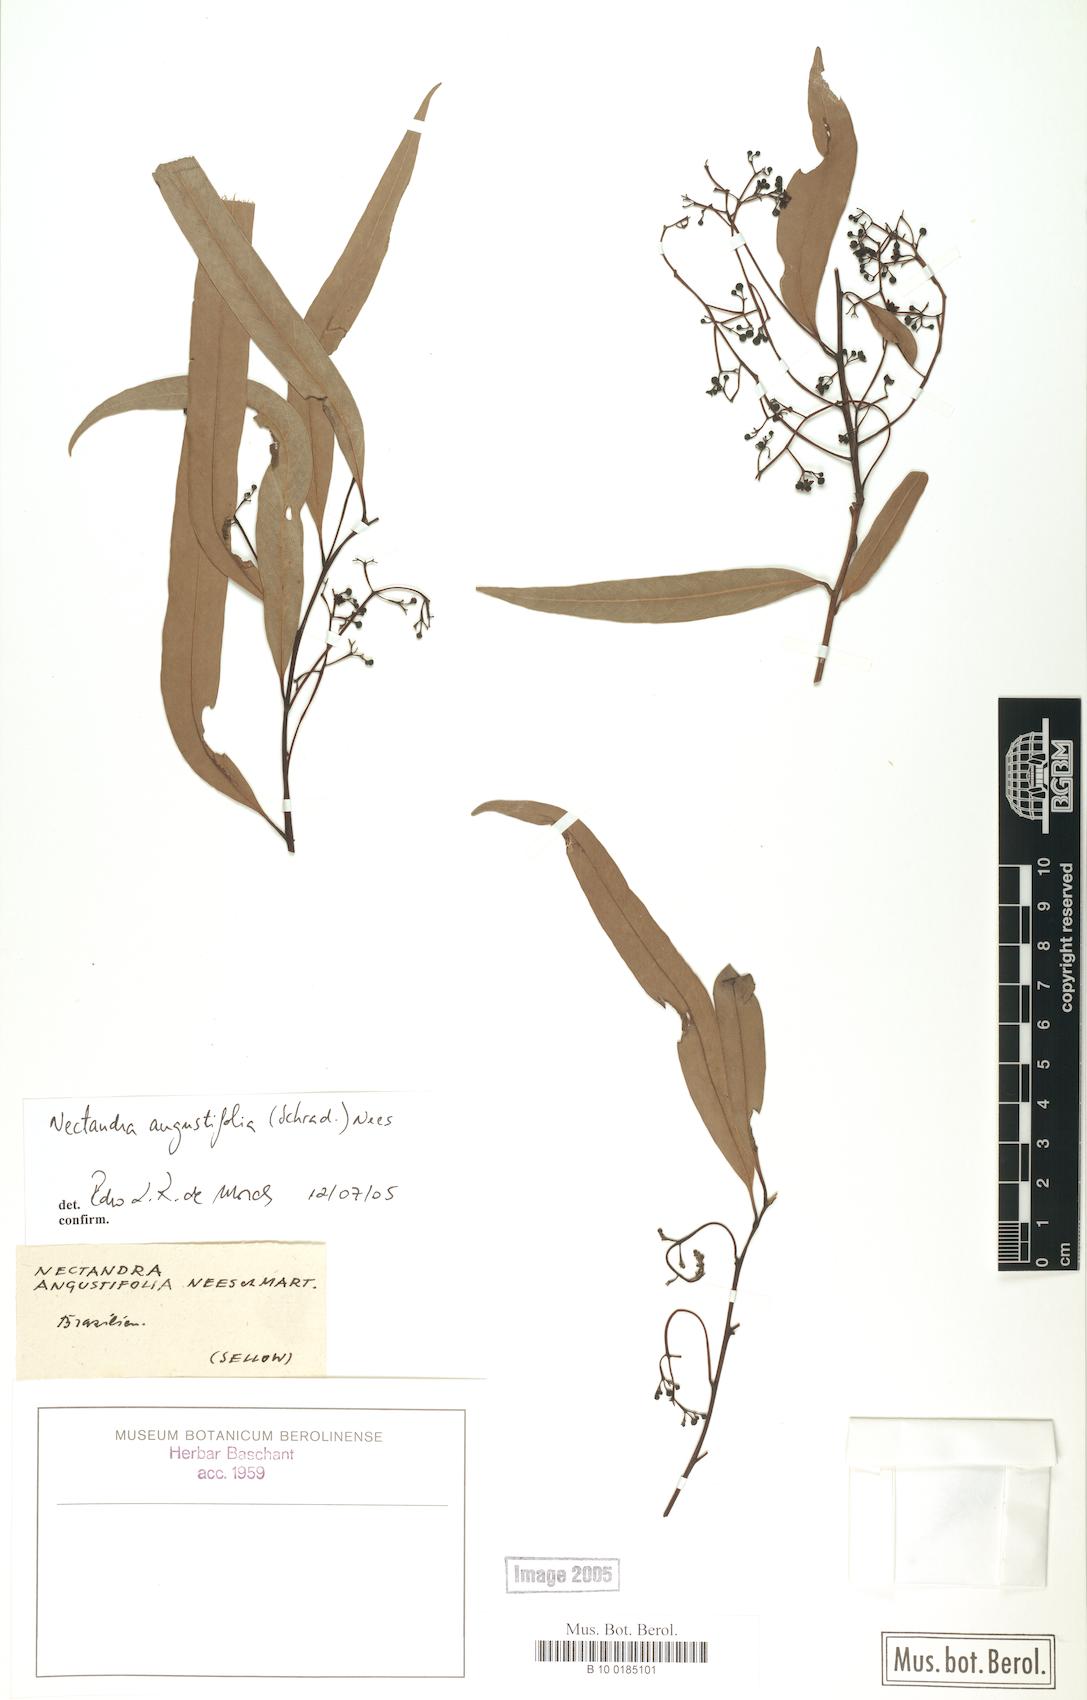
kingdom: Plantae
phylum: Tracheophyta
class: Magnoliopsida
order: Laurales
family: Lauraceae
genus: Nectandra
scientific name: Nectandra angustifolia
